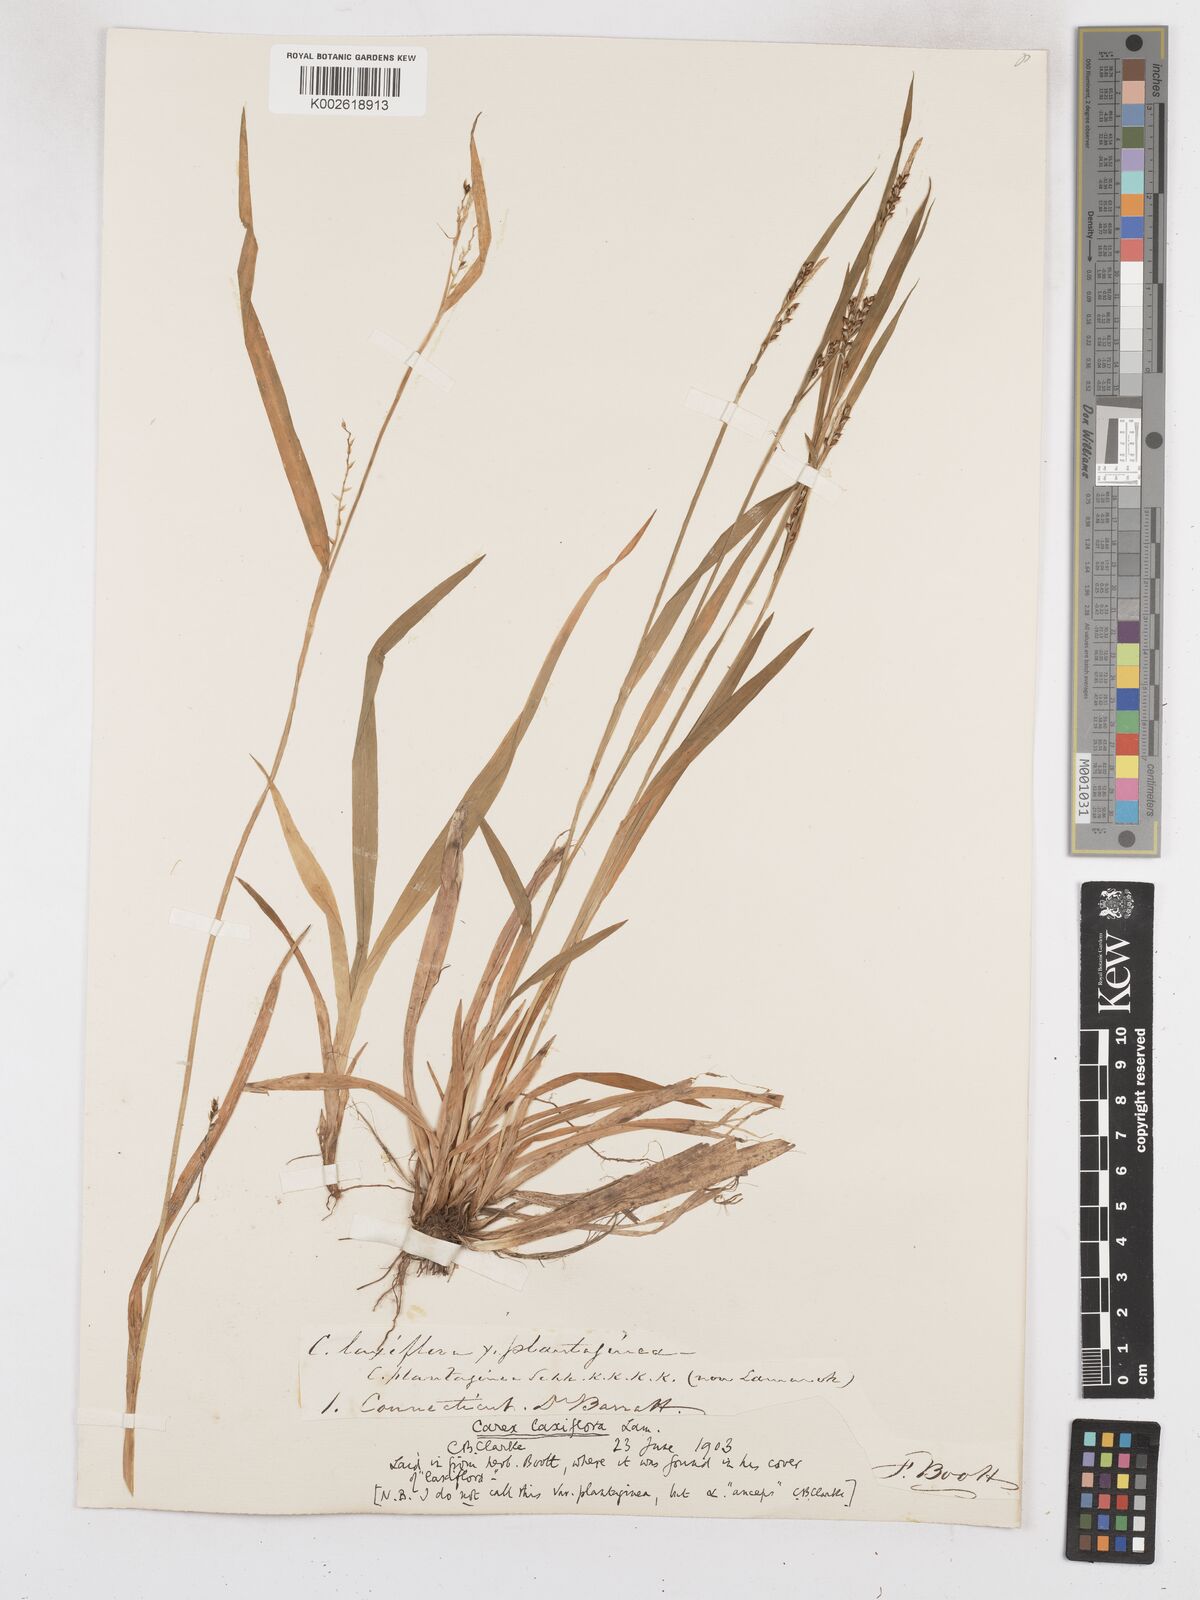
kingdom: Plantae
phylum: Tracheophyta
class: Liliopsida
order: Poales
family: Cyperaceae
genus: Carex
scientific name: Carex laxiflora
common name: Beech wood sedge
